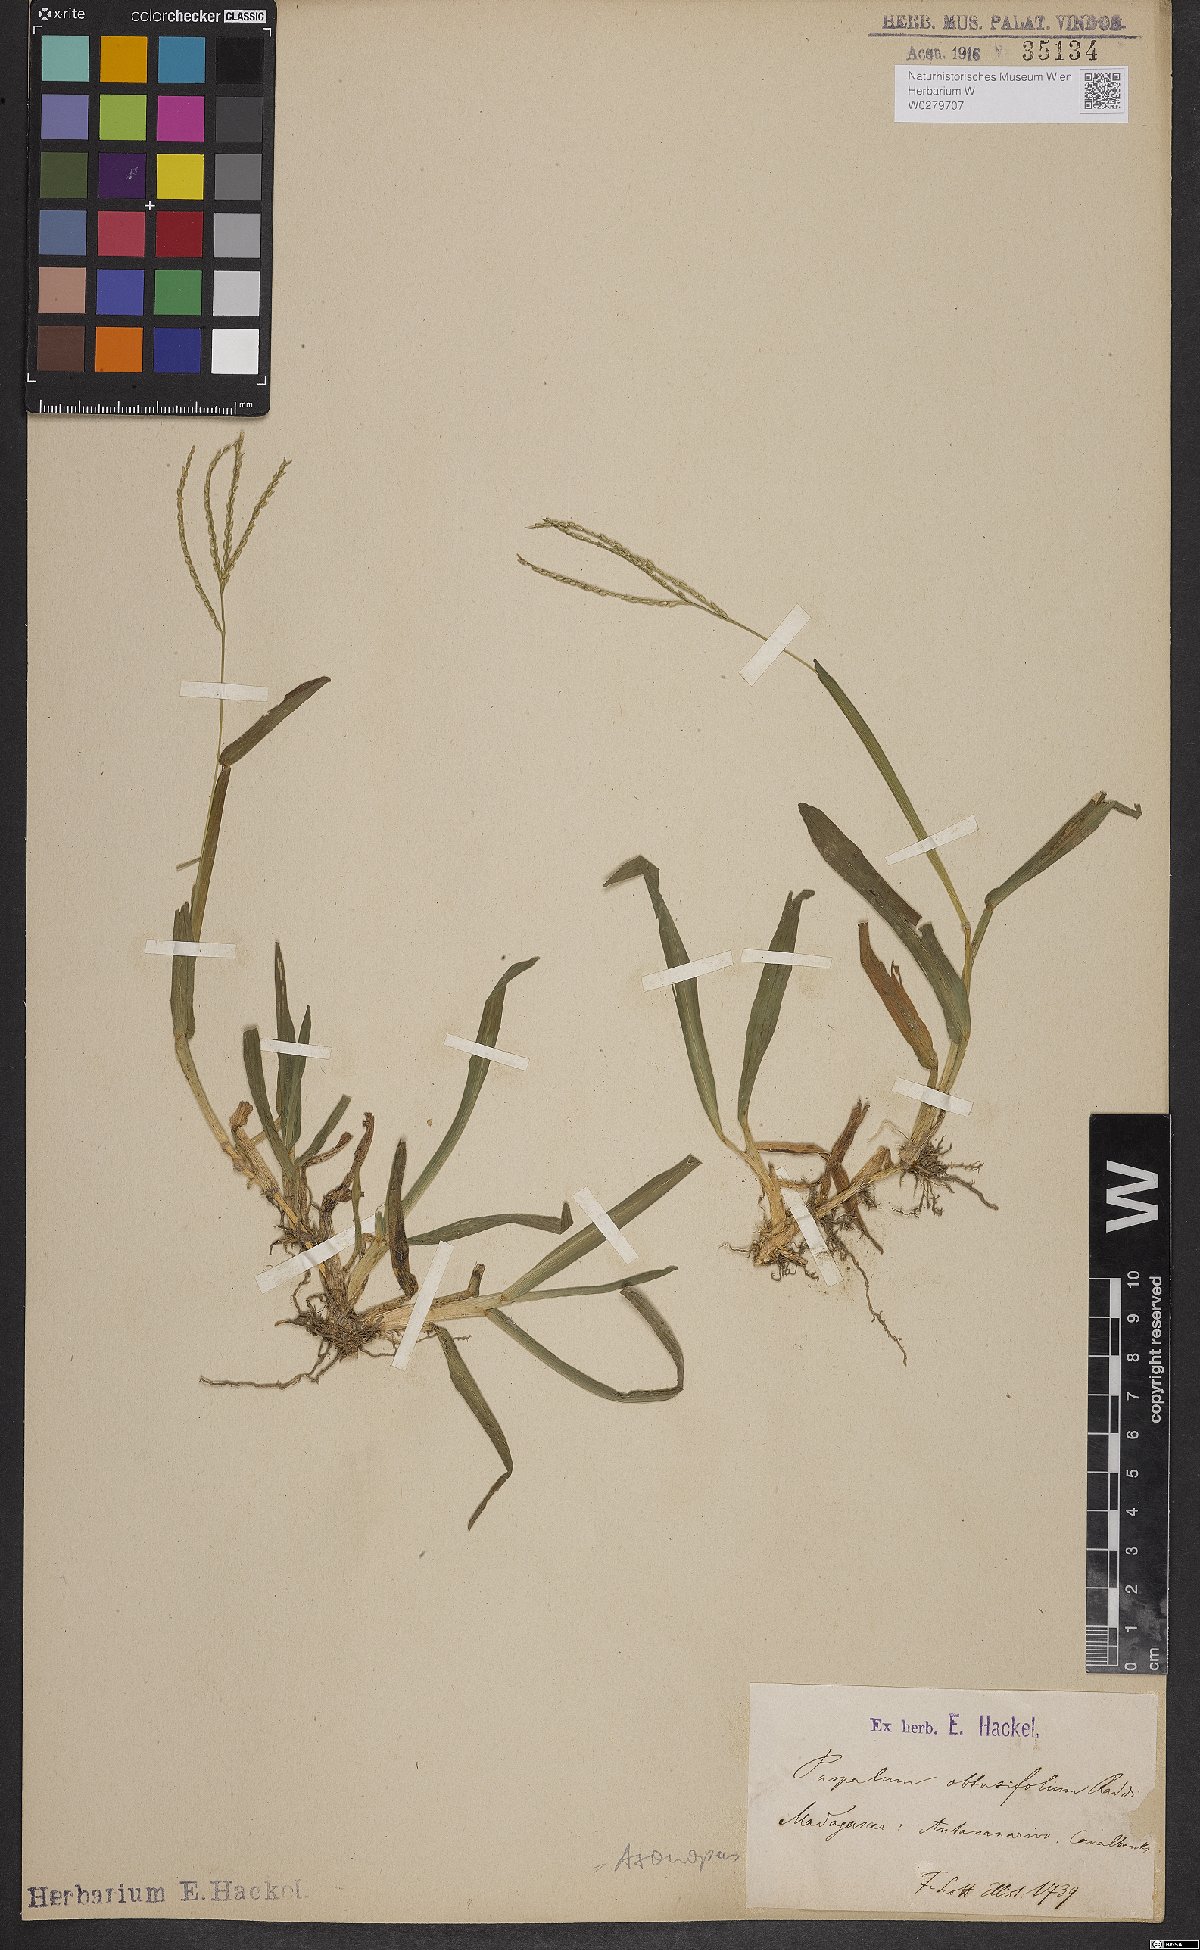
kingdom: Plantae
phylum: Tracheophyta
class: Liliopsida
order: Poales
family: Poaceae
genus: Axonopus
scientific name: Axonopus furcatus
